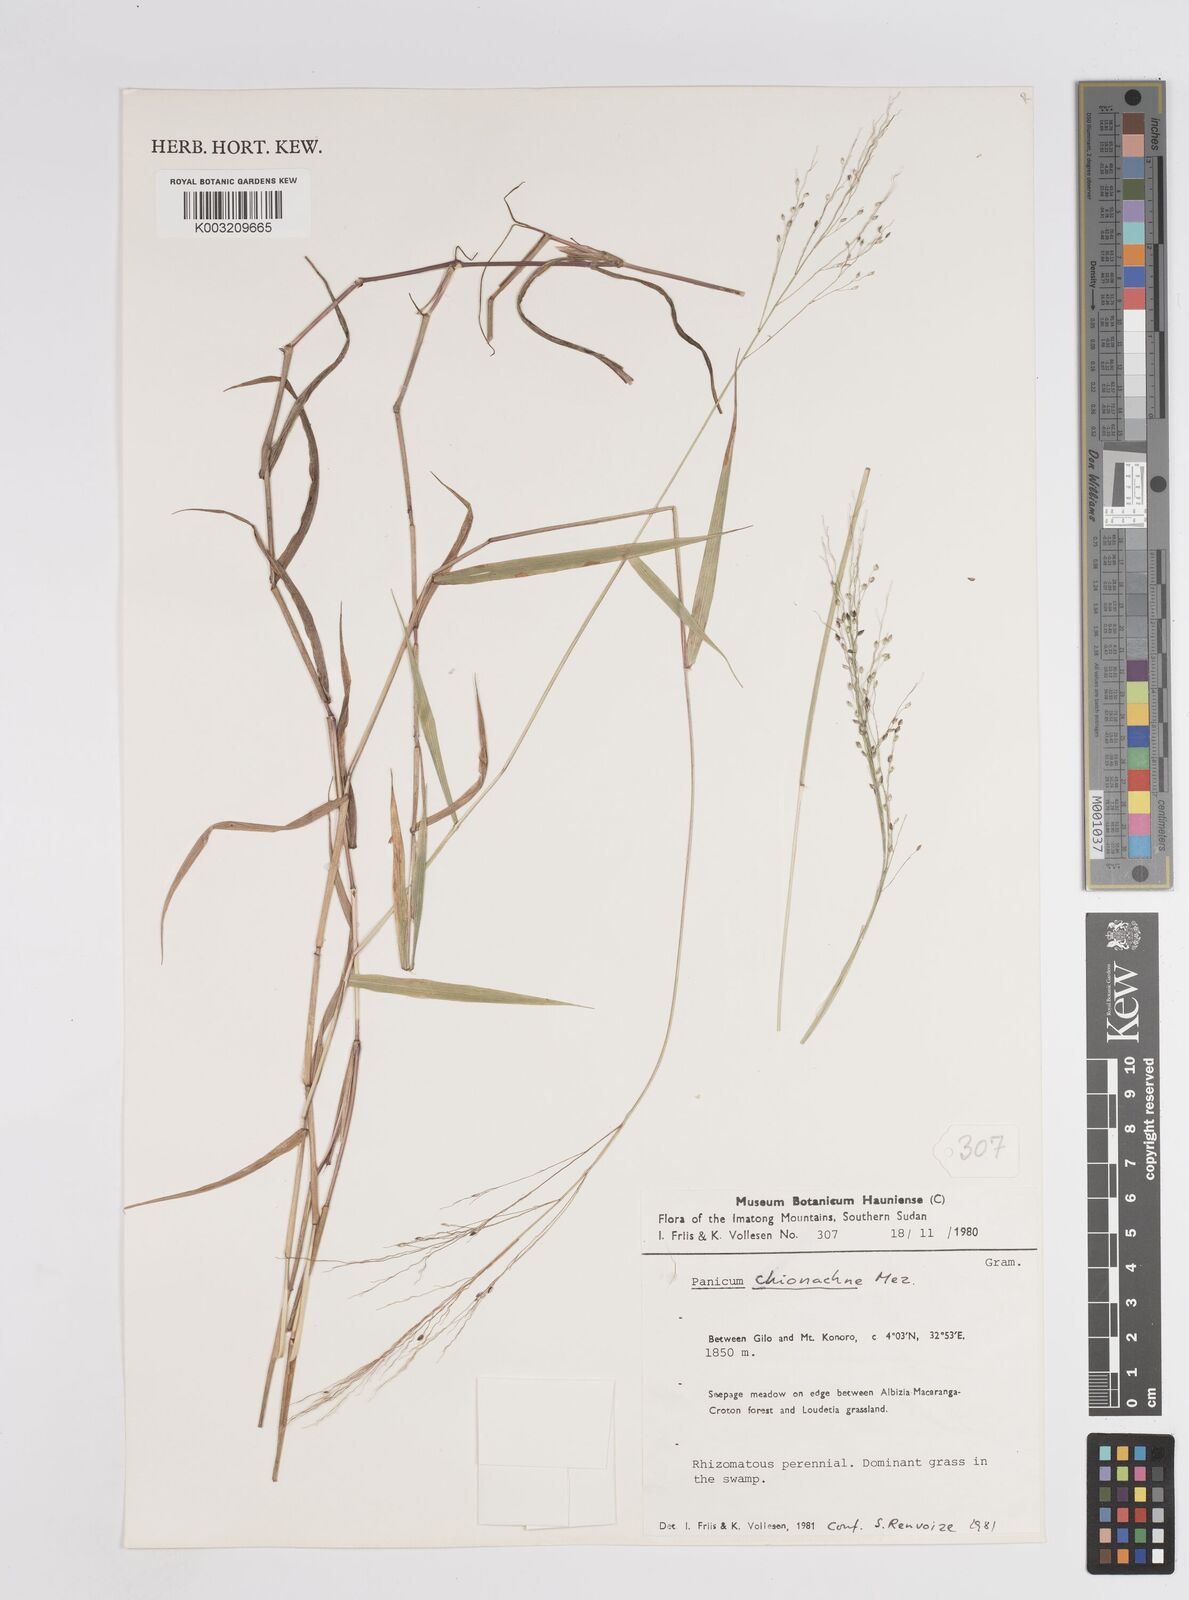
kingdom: Plantae
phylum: Tracheophyta
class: Liliopsida
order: Poales
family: Poaceae
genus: Panicum
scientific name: Panicum chionachne
